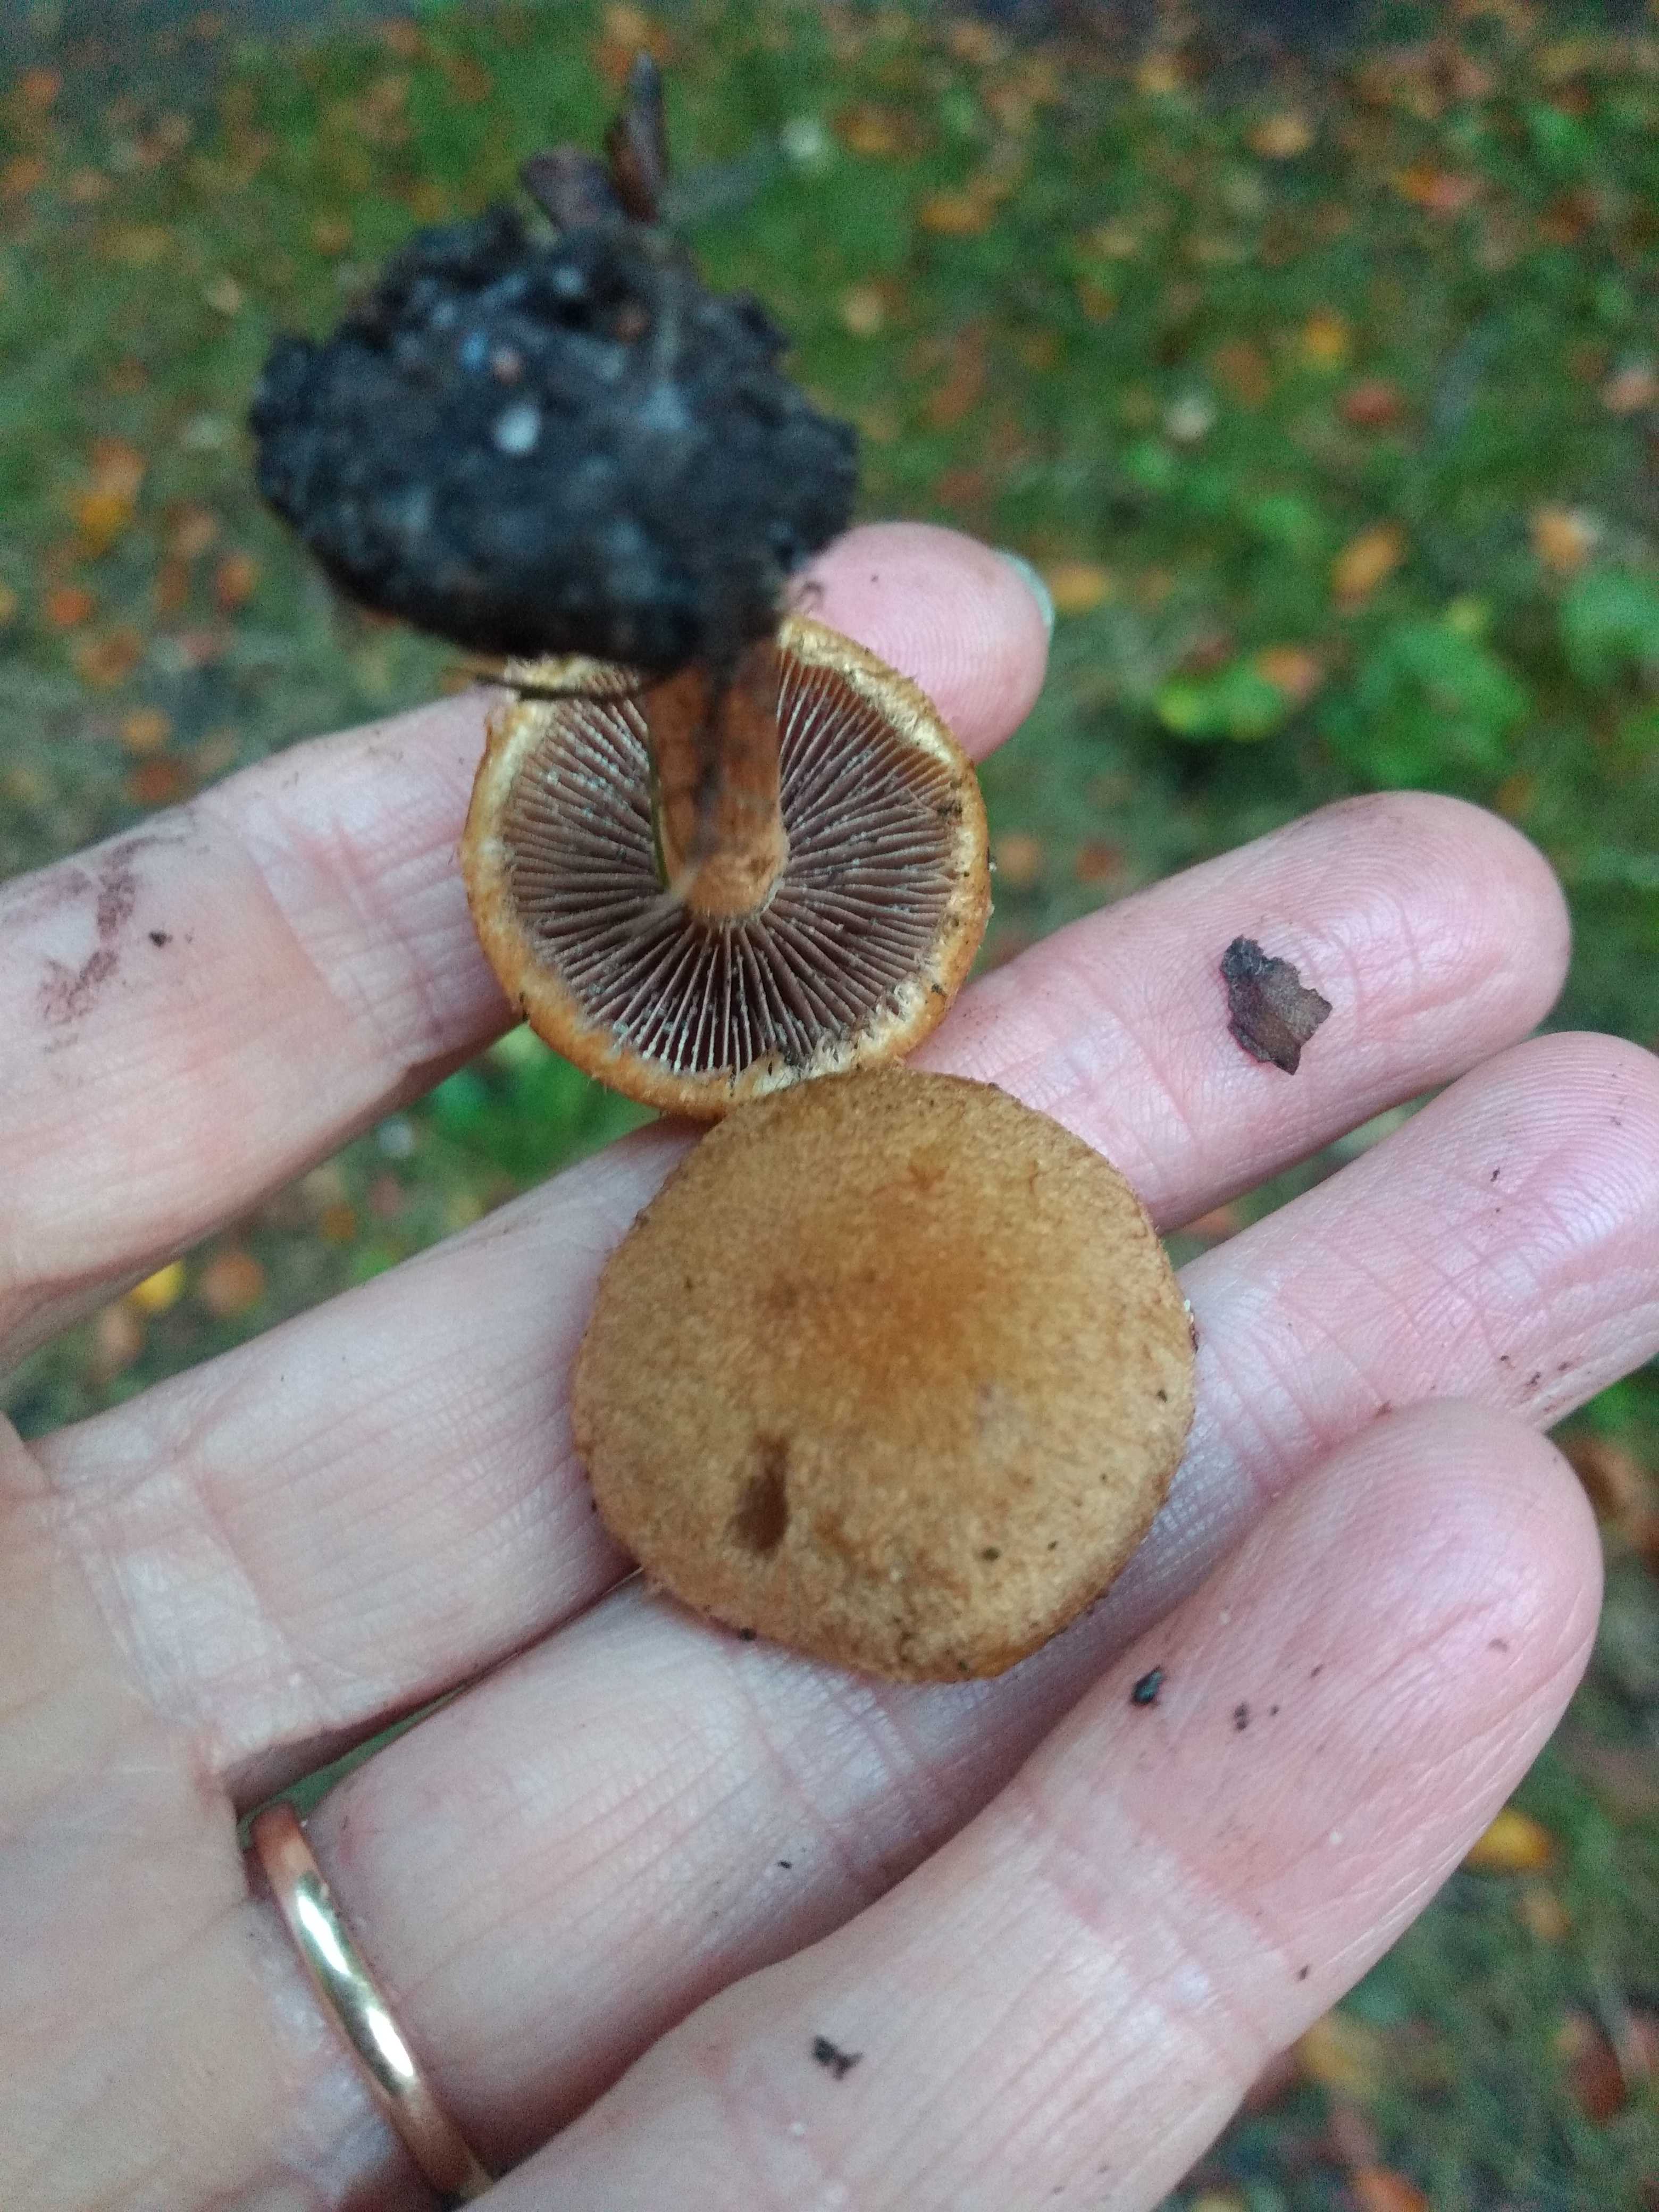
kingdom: Fungi
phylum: Basidiomycota
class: Agaricomycetes
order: Agaricales
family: Psathyrellaceae
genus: Lacrymaria
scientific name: Lacrymaria pyrotricha
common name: ildhåret mørkhat
